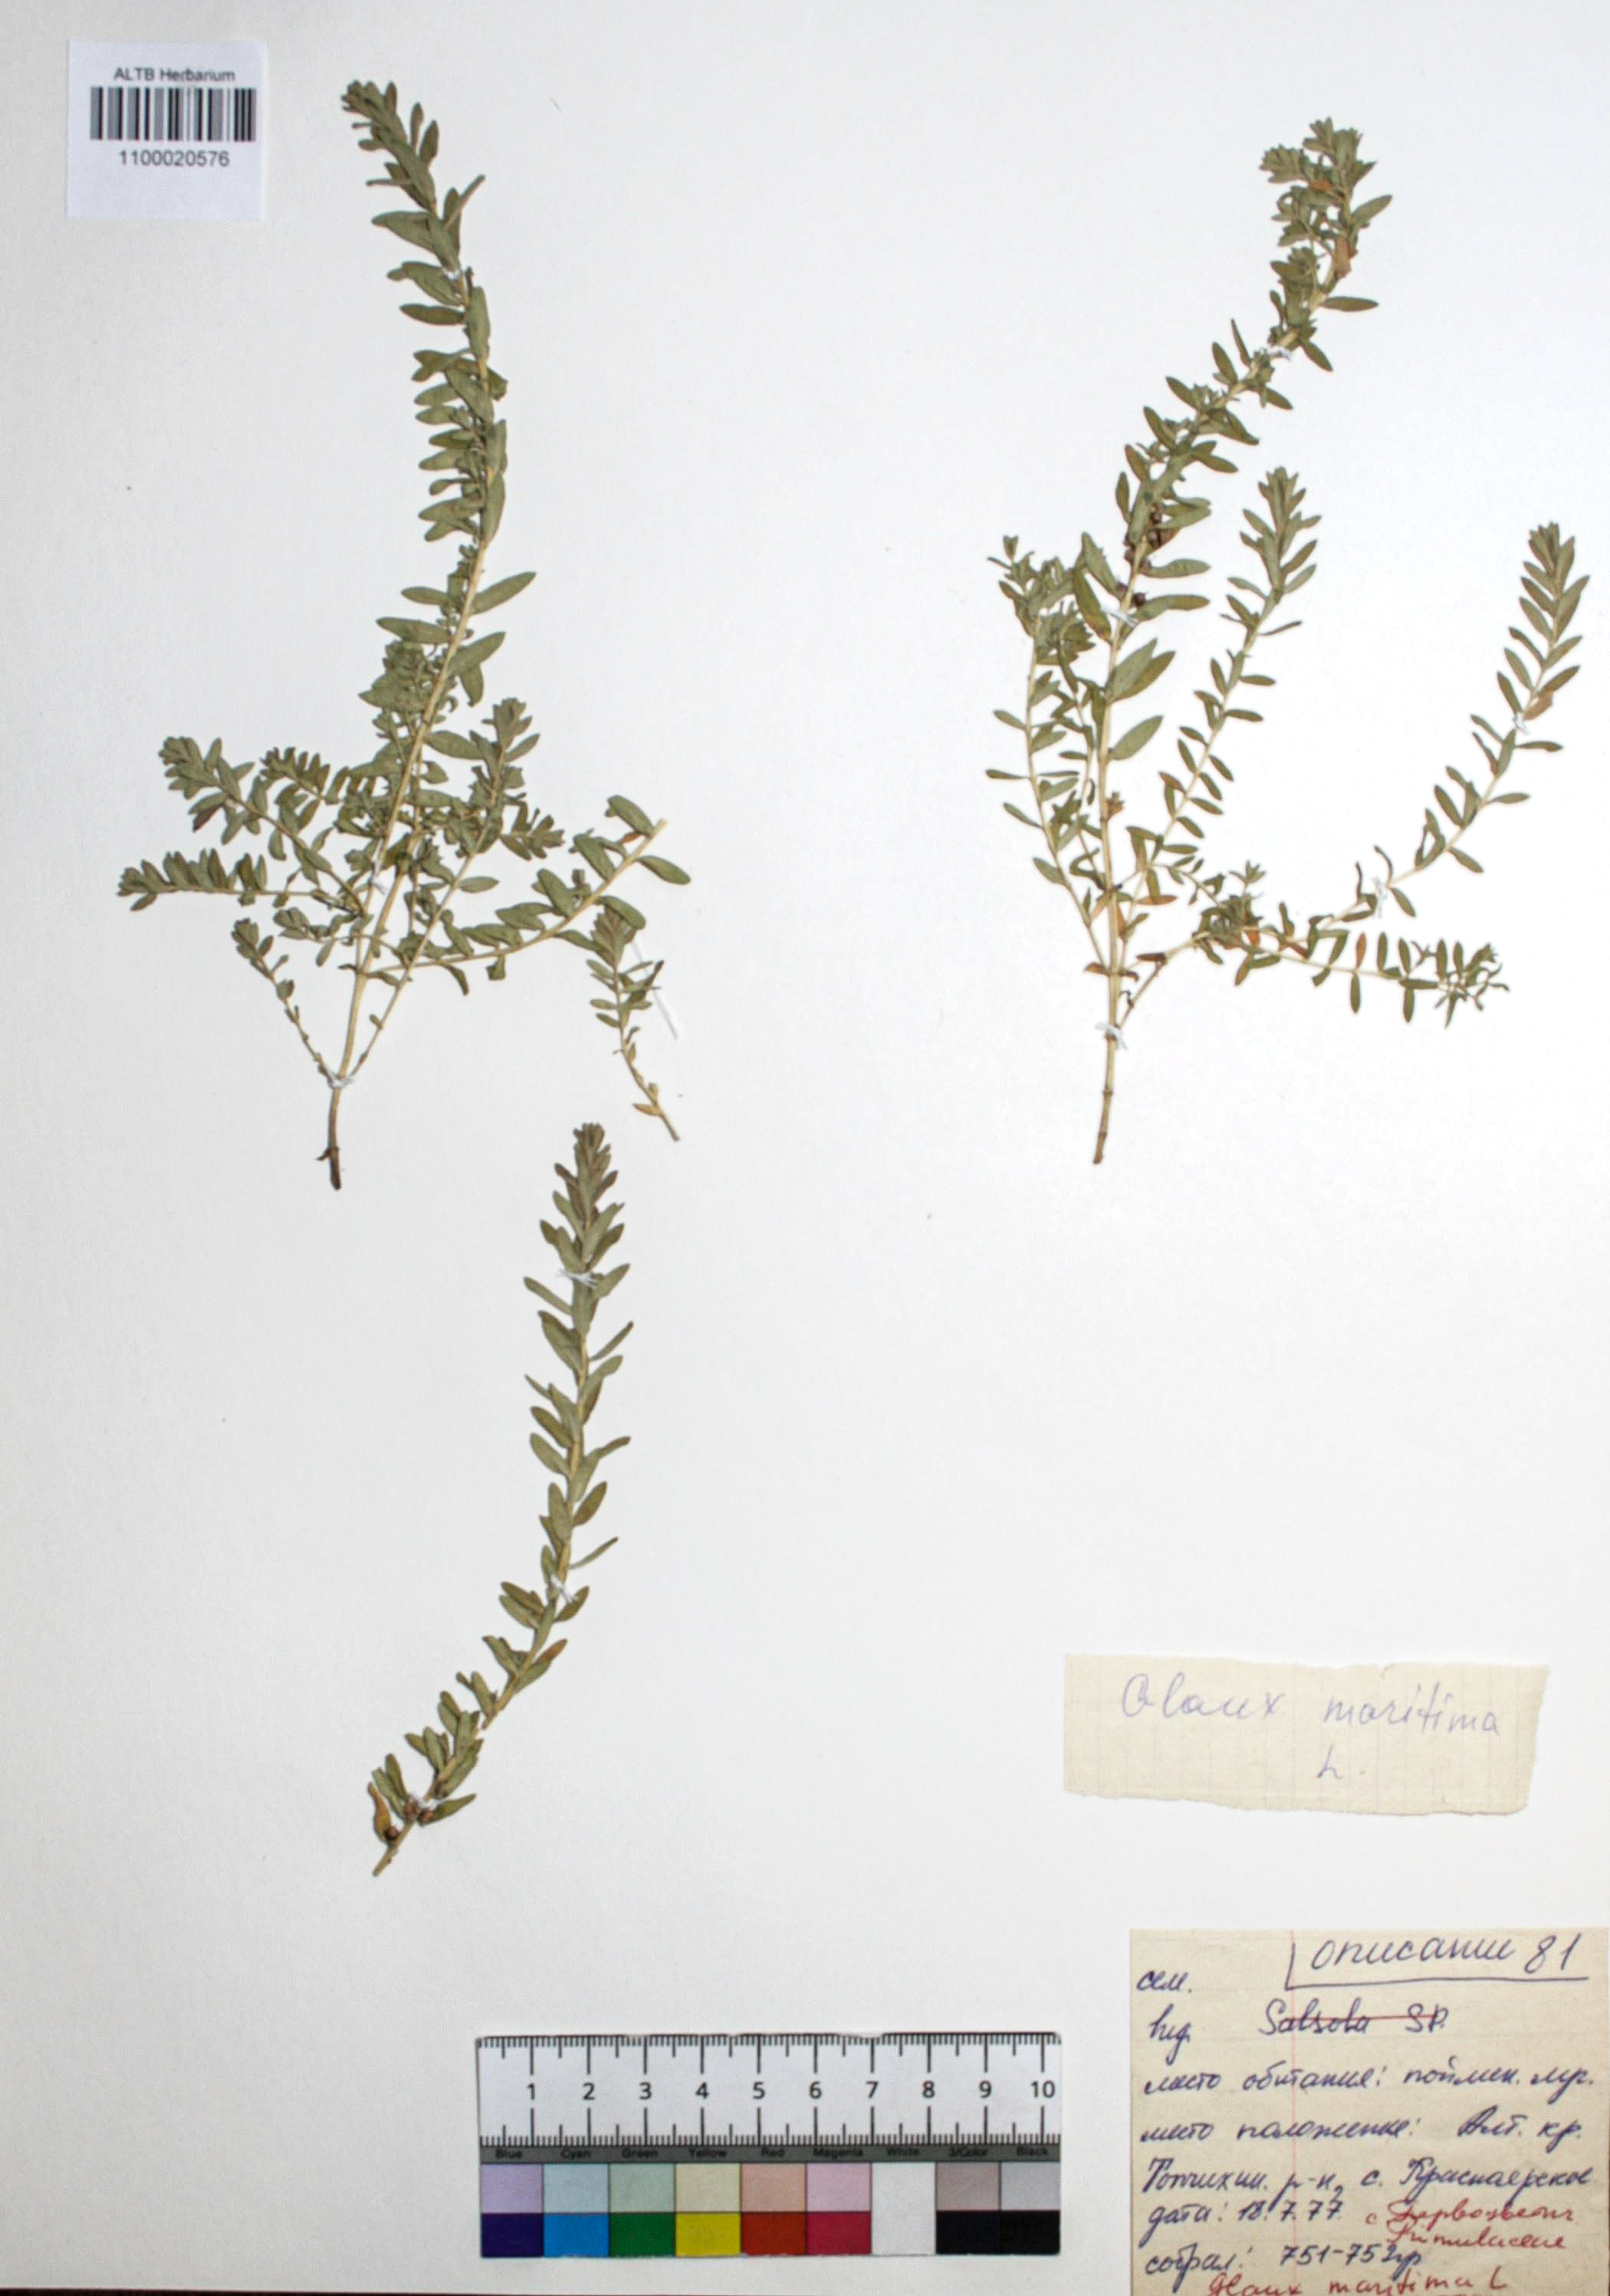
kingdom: Plantae
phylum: Tracheophyta
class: Magnoliopsida
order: Ericales
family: Primulaceae
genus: Lysimachia
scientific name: Lysimachia maritima
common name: Sea milkwort
